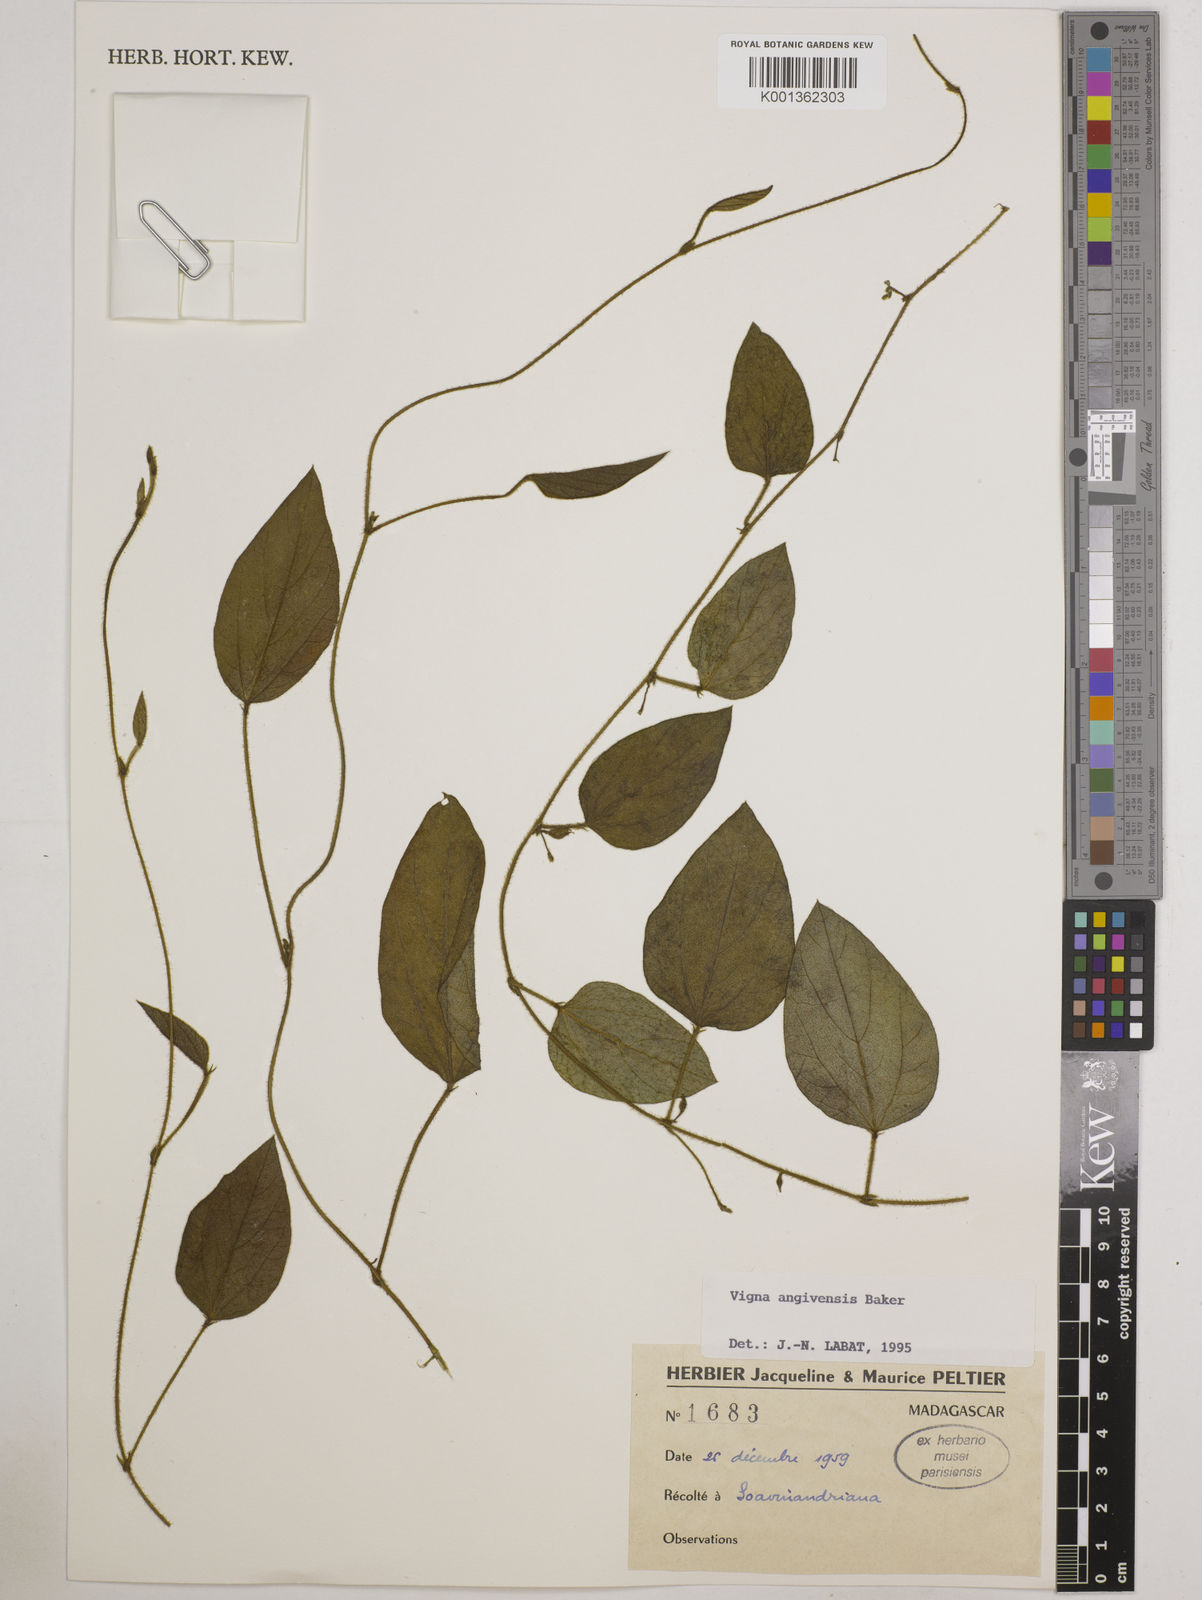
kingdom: Plantae
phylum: Tracheophyta
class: Magnoliopsida
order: Fabales
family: Fabaceae
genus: Vigna
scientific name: Vigna angivensis
